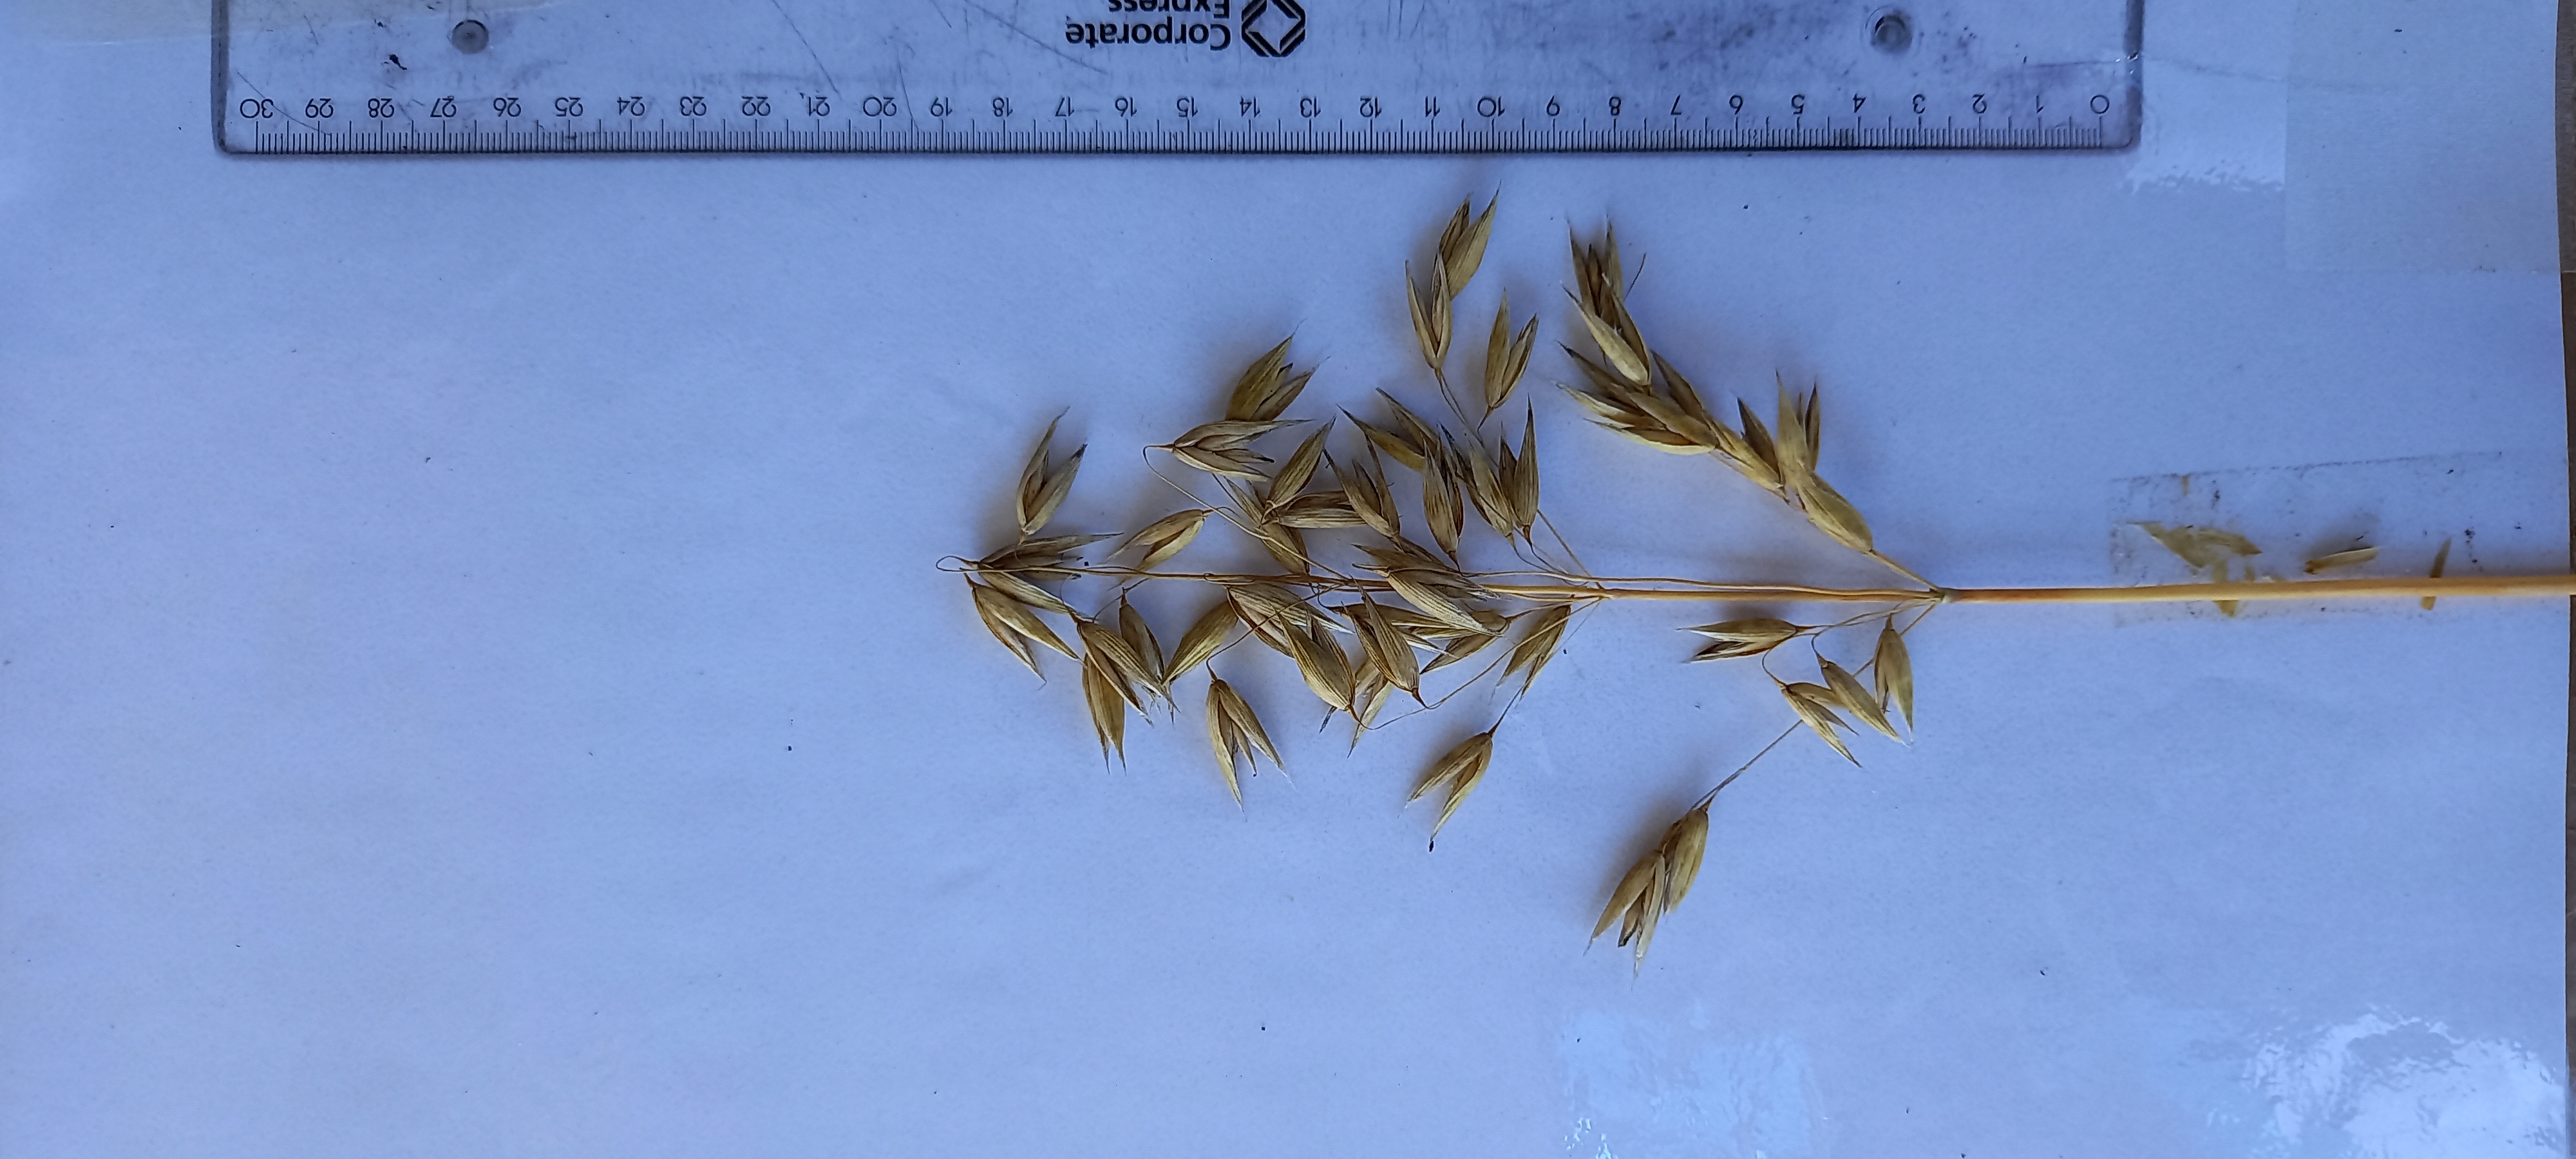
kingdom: Plantae
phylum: Tracheophyta
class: Liliopsida
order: Poales
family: Poaceae
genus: Avena
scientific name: Avena sativa
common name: Oat
